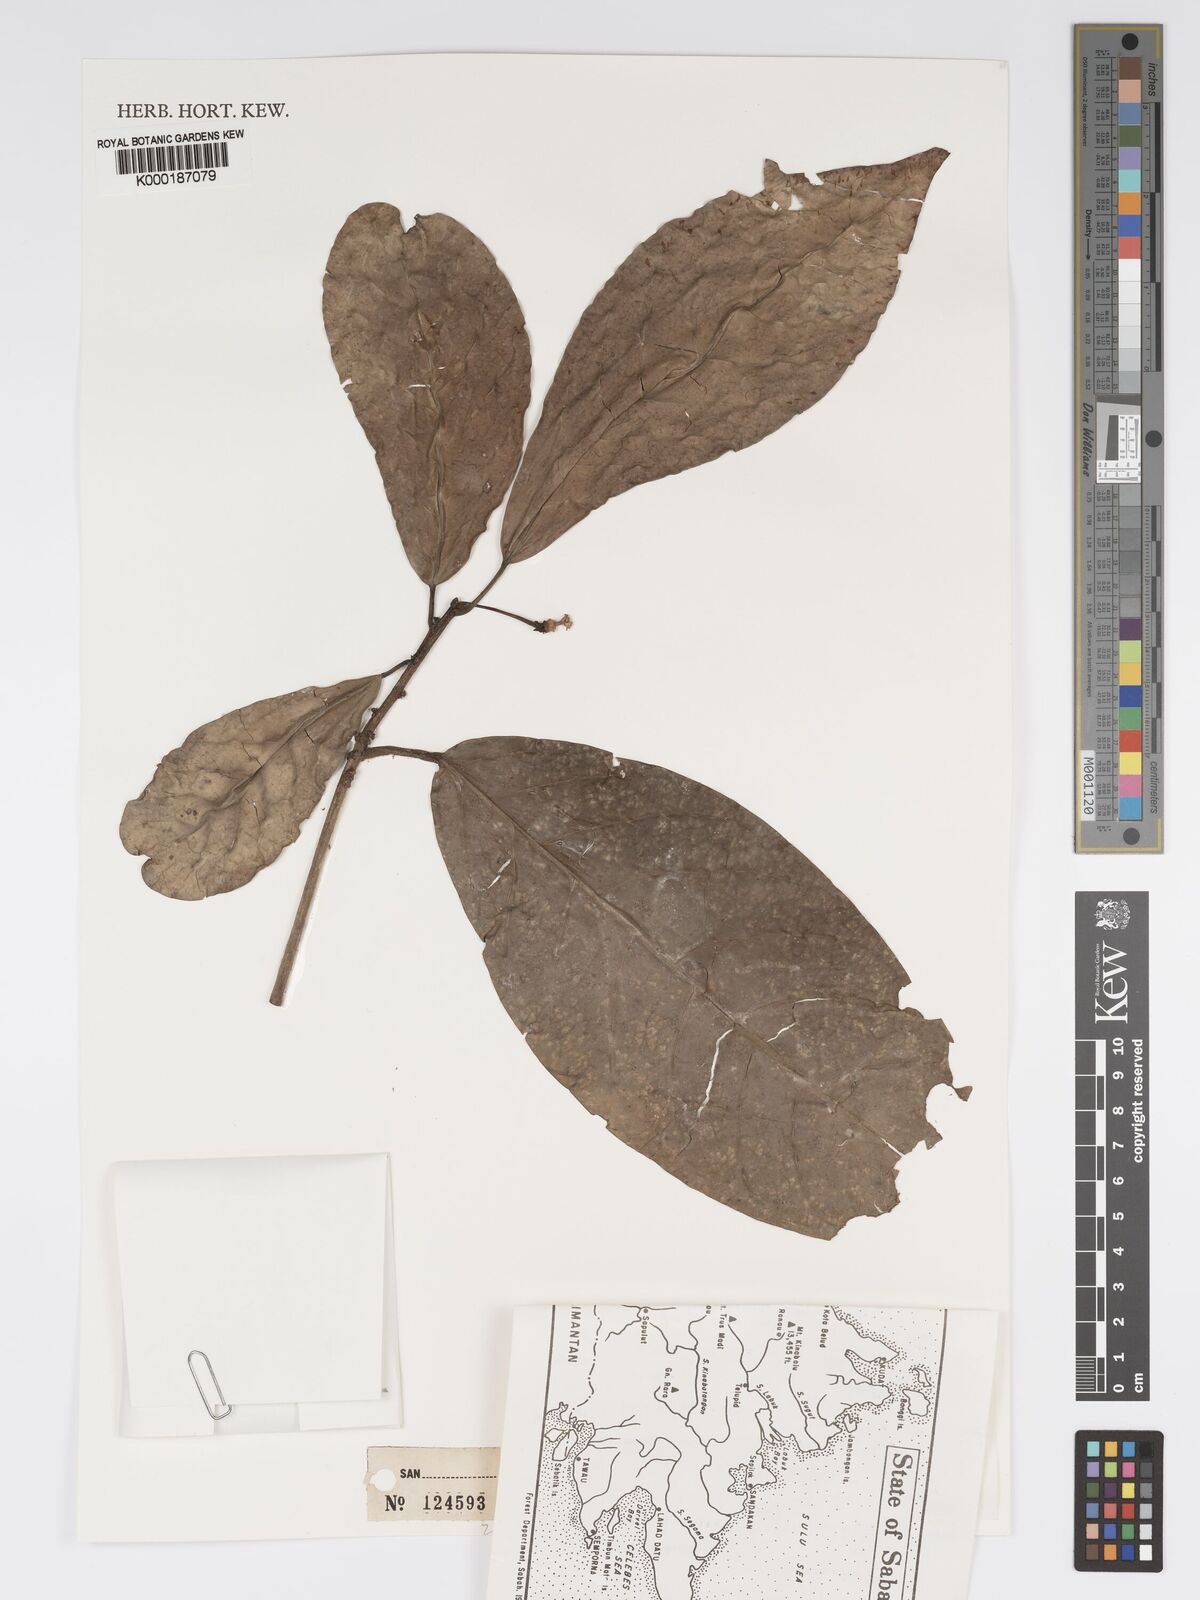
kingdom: Plantae
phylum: Tracheophyta
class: Magnoliopsida
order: Malpighiales
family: Phyllanthaceae
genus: Actephila
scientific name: Actephila
